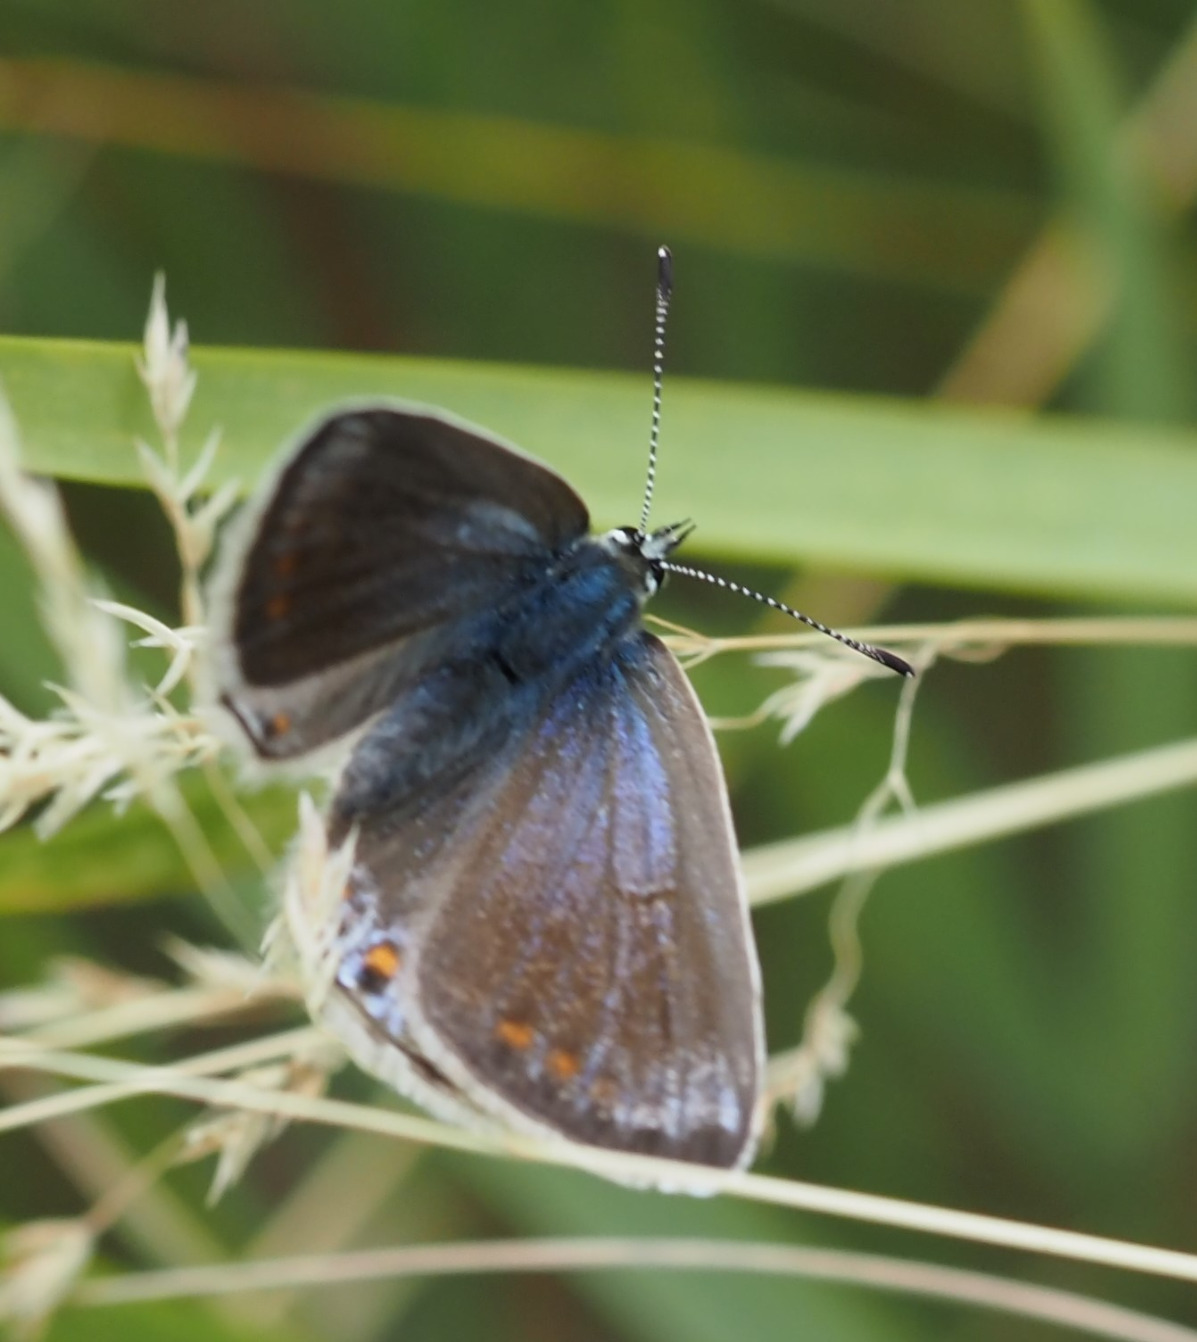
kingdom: Animalia
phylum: Arthropoda
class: Insecta
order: Lepidoptera
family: Lycaenidae
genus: Polyommatus
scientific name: Polyommatus icarus
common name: Almindelig blåfugl
